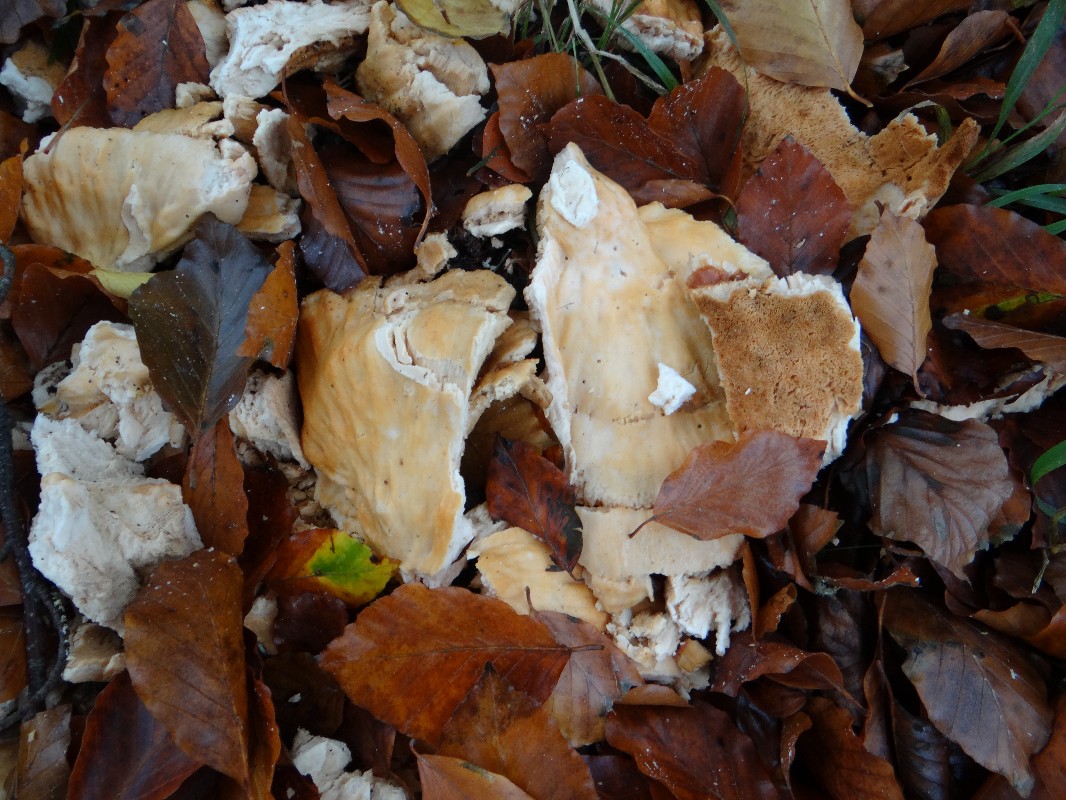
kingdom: Fungi
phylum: Basidiomycota
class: Agaricomycetes
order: Polyporales
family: Laetiporaceae
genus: Laetiporus
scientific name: Laetiporus sulphureus
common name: svovlporesvamp
